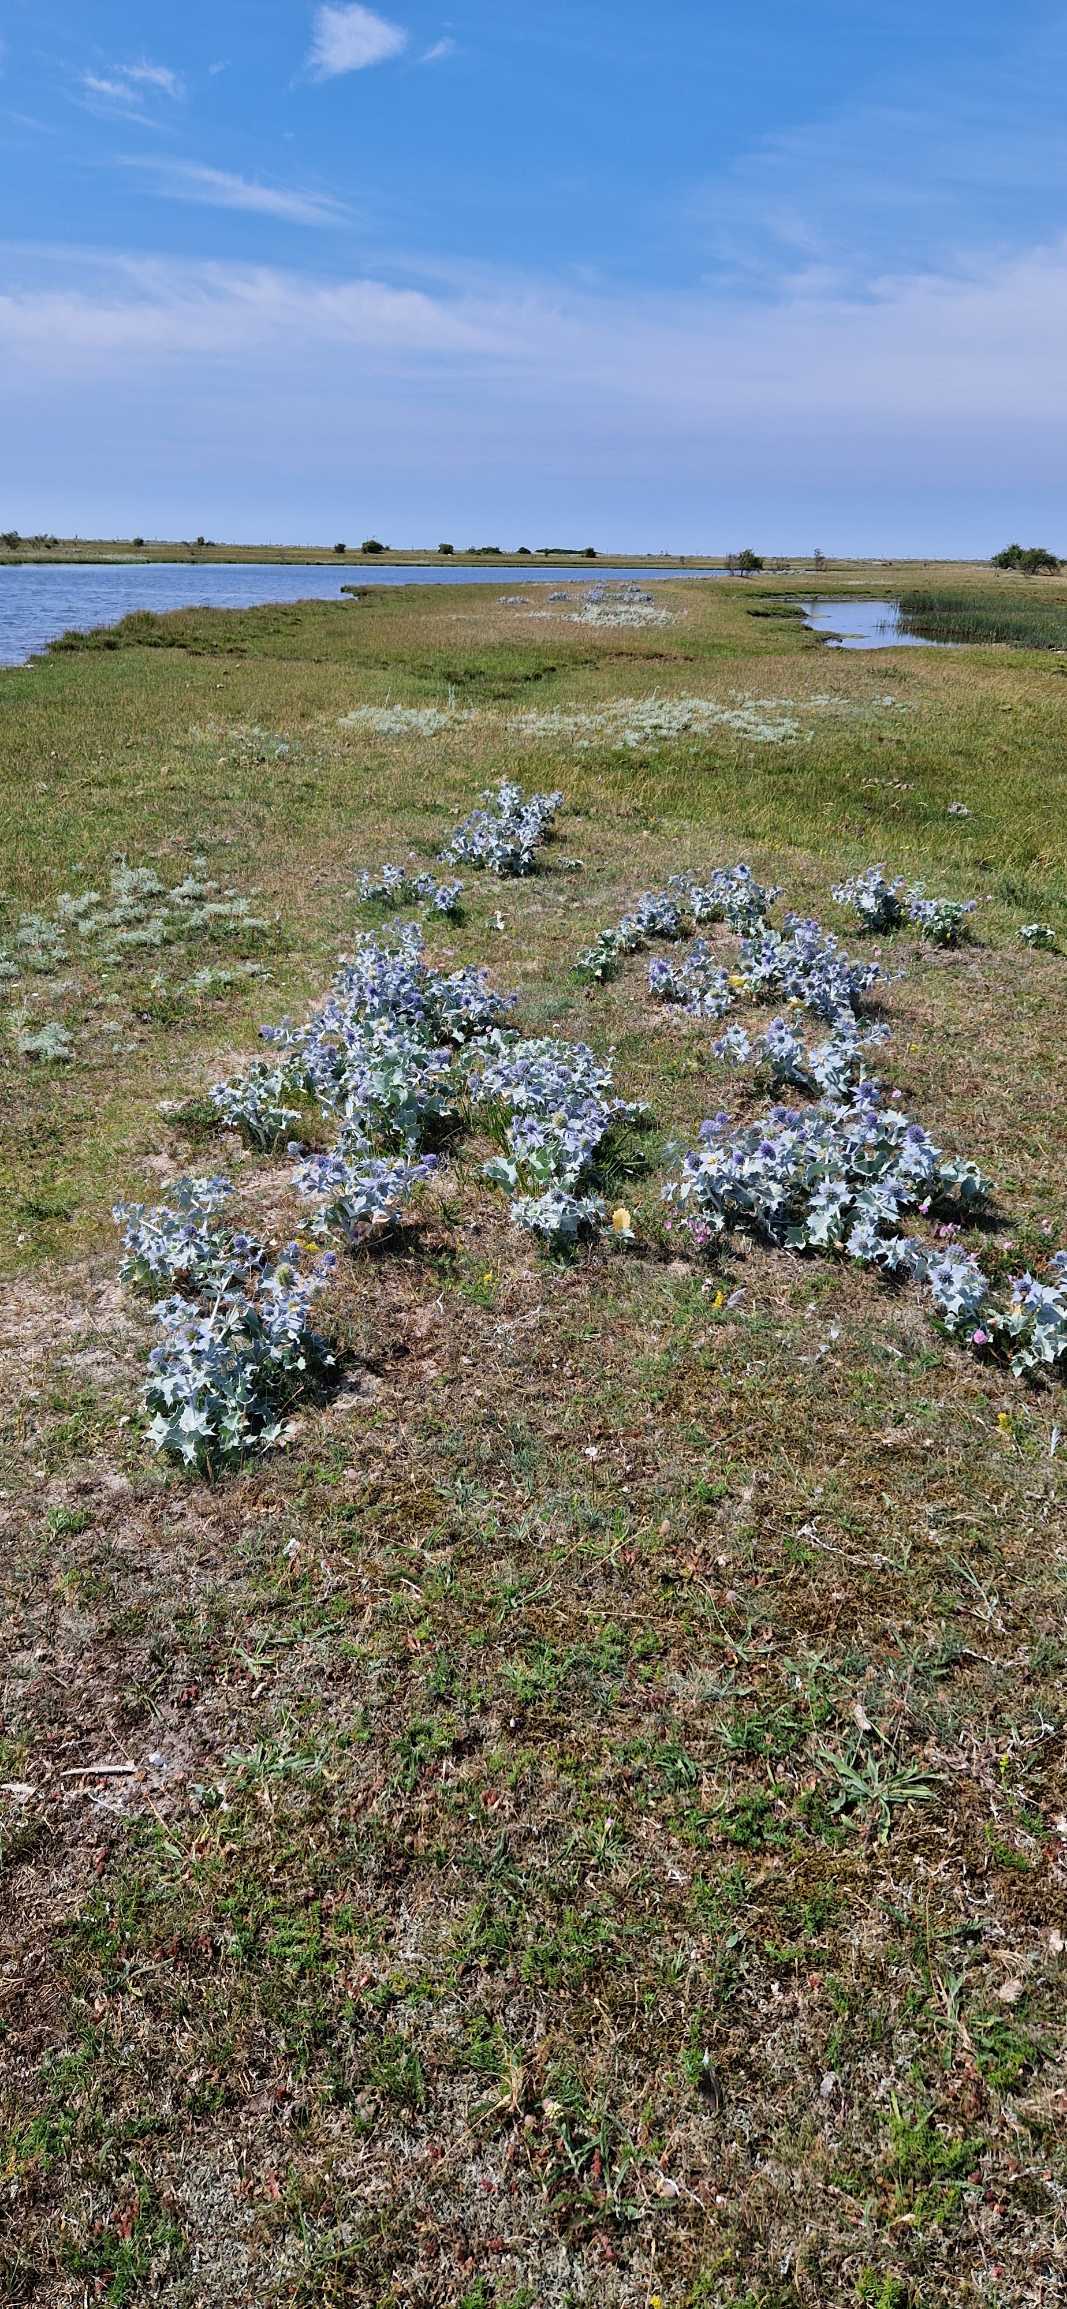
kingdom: Plantae
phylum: Tracheophyta
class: Magnoliopsida
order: Apiales
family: Apiaceae
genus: Eryngium
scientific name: Eryngium maritimum
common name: Strand-mandstro
